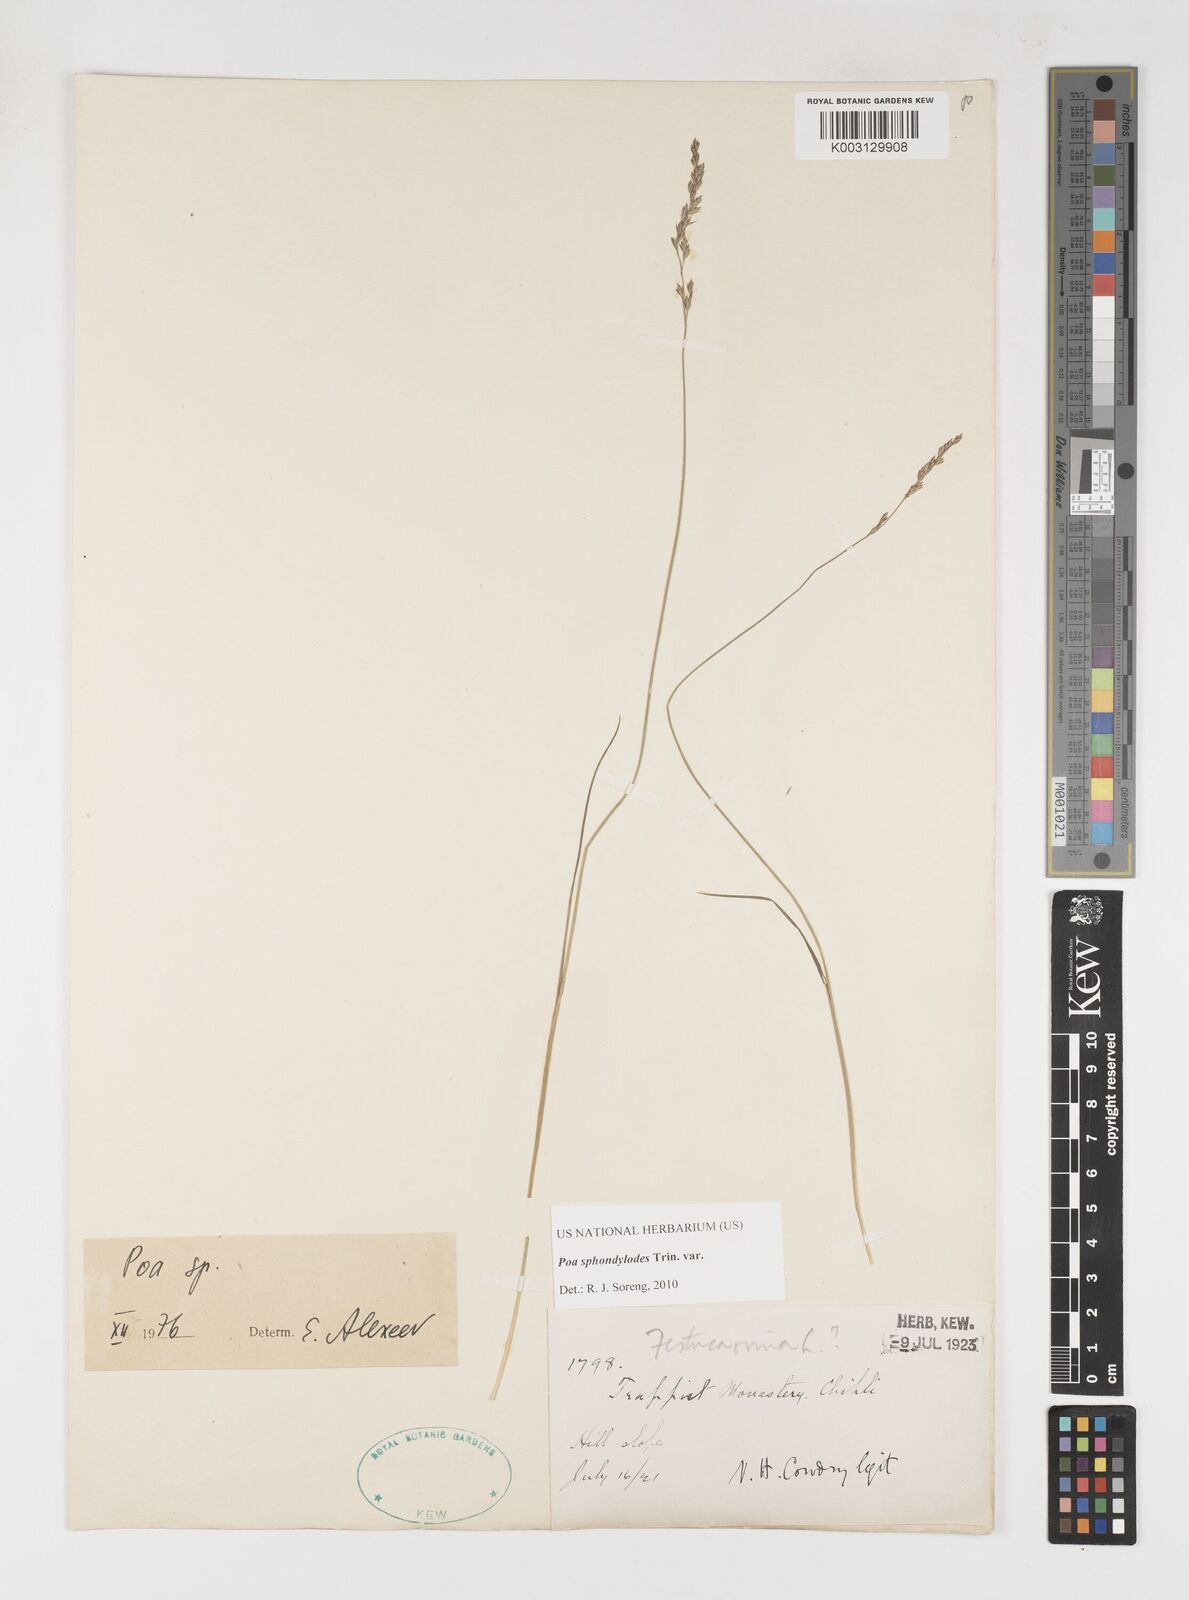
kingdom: Plantae
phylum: Tracheophyta
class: Liliopsida
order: Poales
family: Poaceae
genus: Poa
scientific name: Poa sphondylodes
